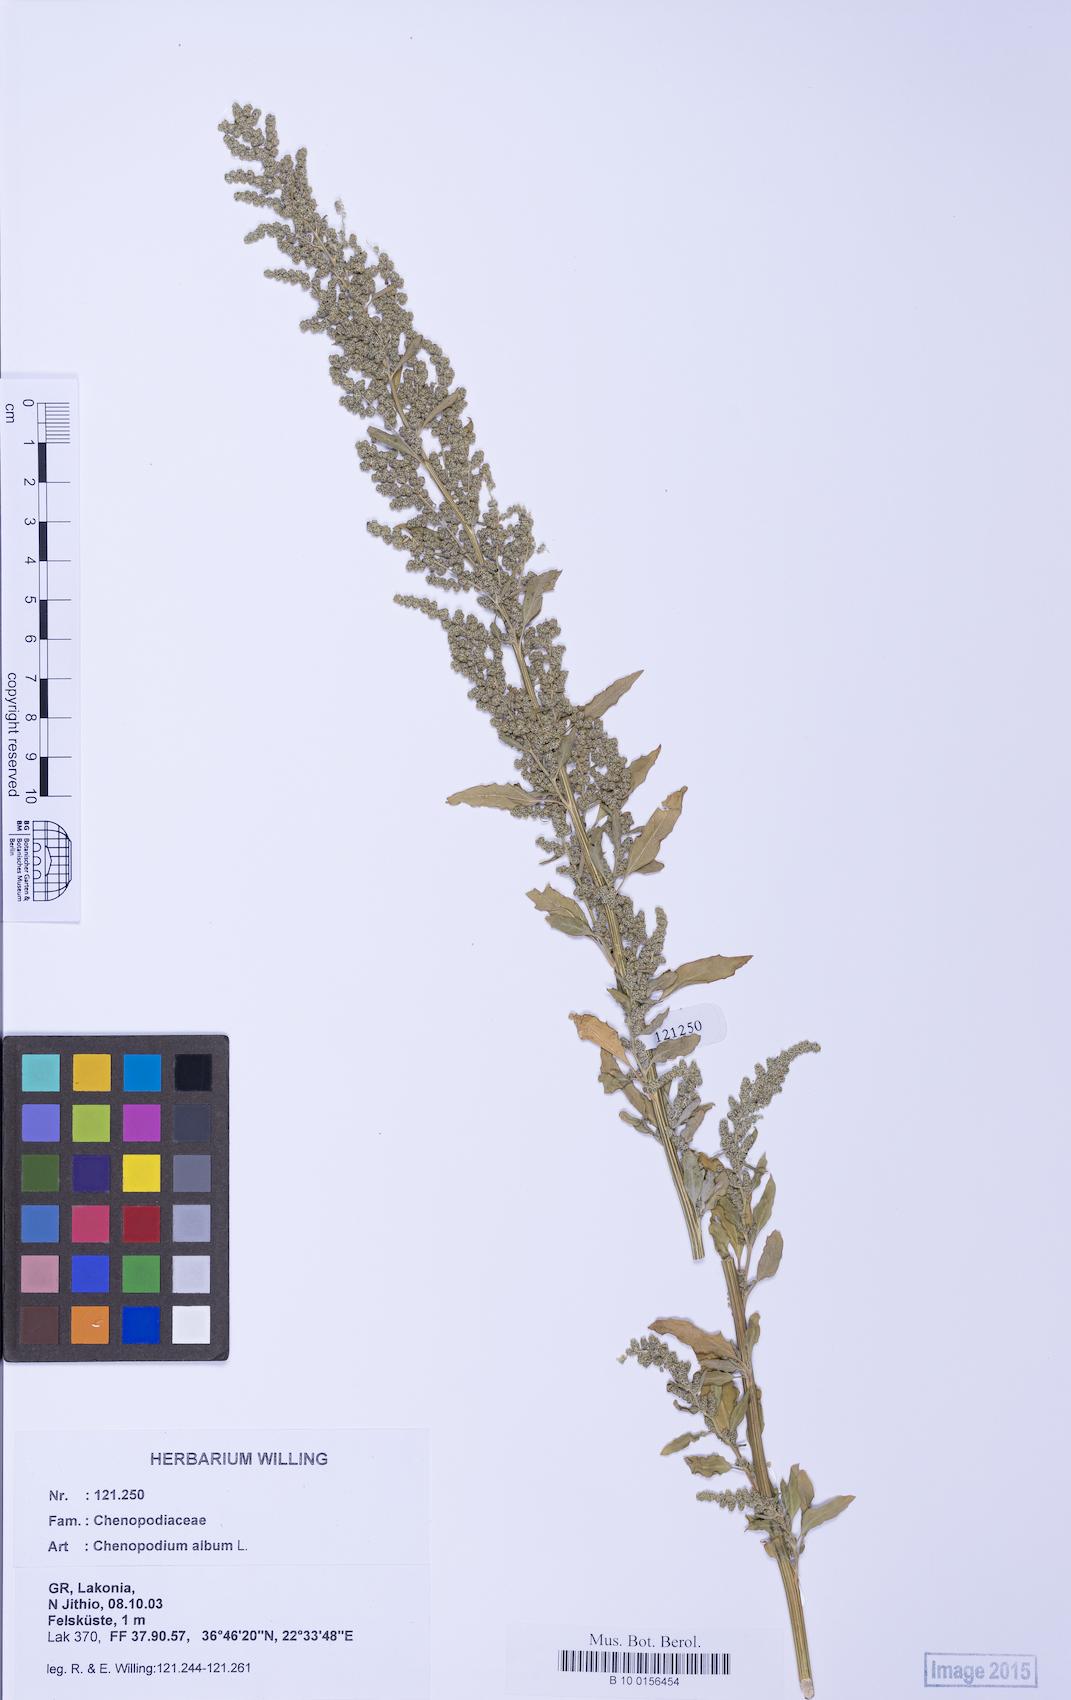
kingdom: Plantae
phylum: Tracheophyta
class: Magnoliopsida
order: Caryophyllales
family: Amaranthaceae
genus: Chenopodium
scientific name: Chenopodium album
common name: Fat-hen
